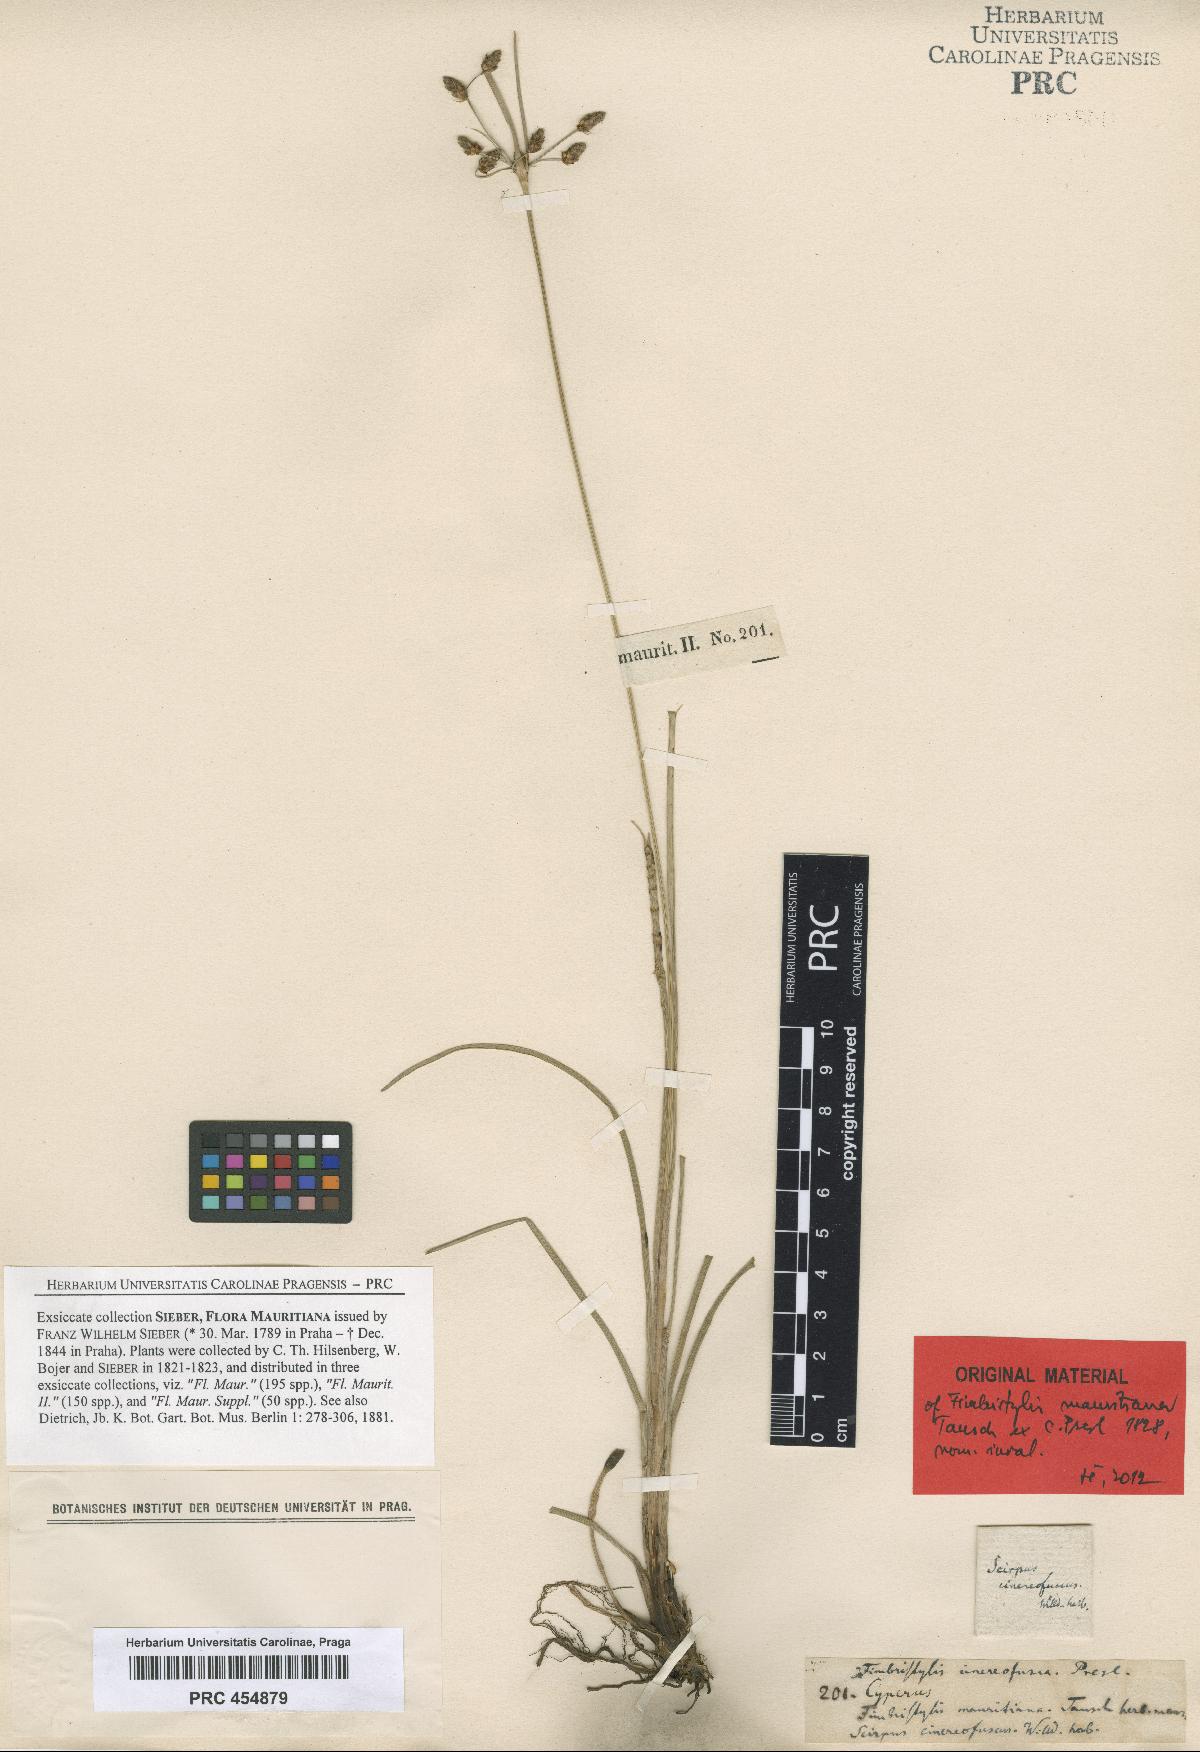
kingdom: Plantae
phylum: Tracheophyta
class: Liliopsida
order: Poales
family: Cyperaceae
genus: Fimbristylis
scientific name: Fimbristylis ferruginea
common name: West indian fimbry
